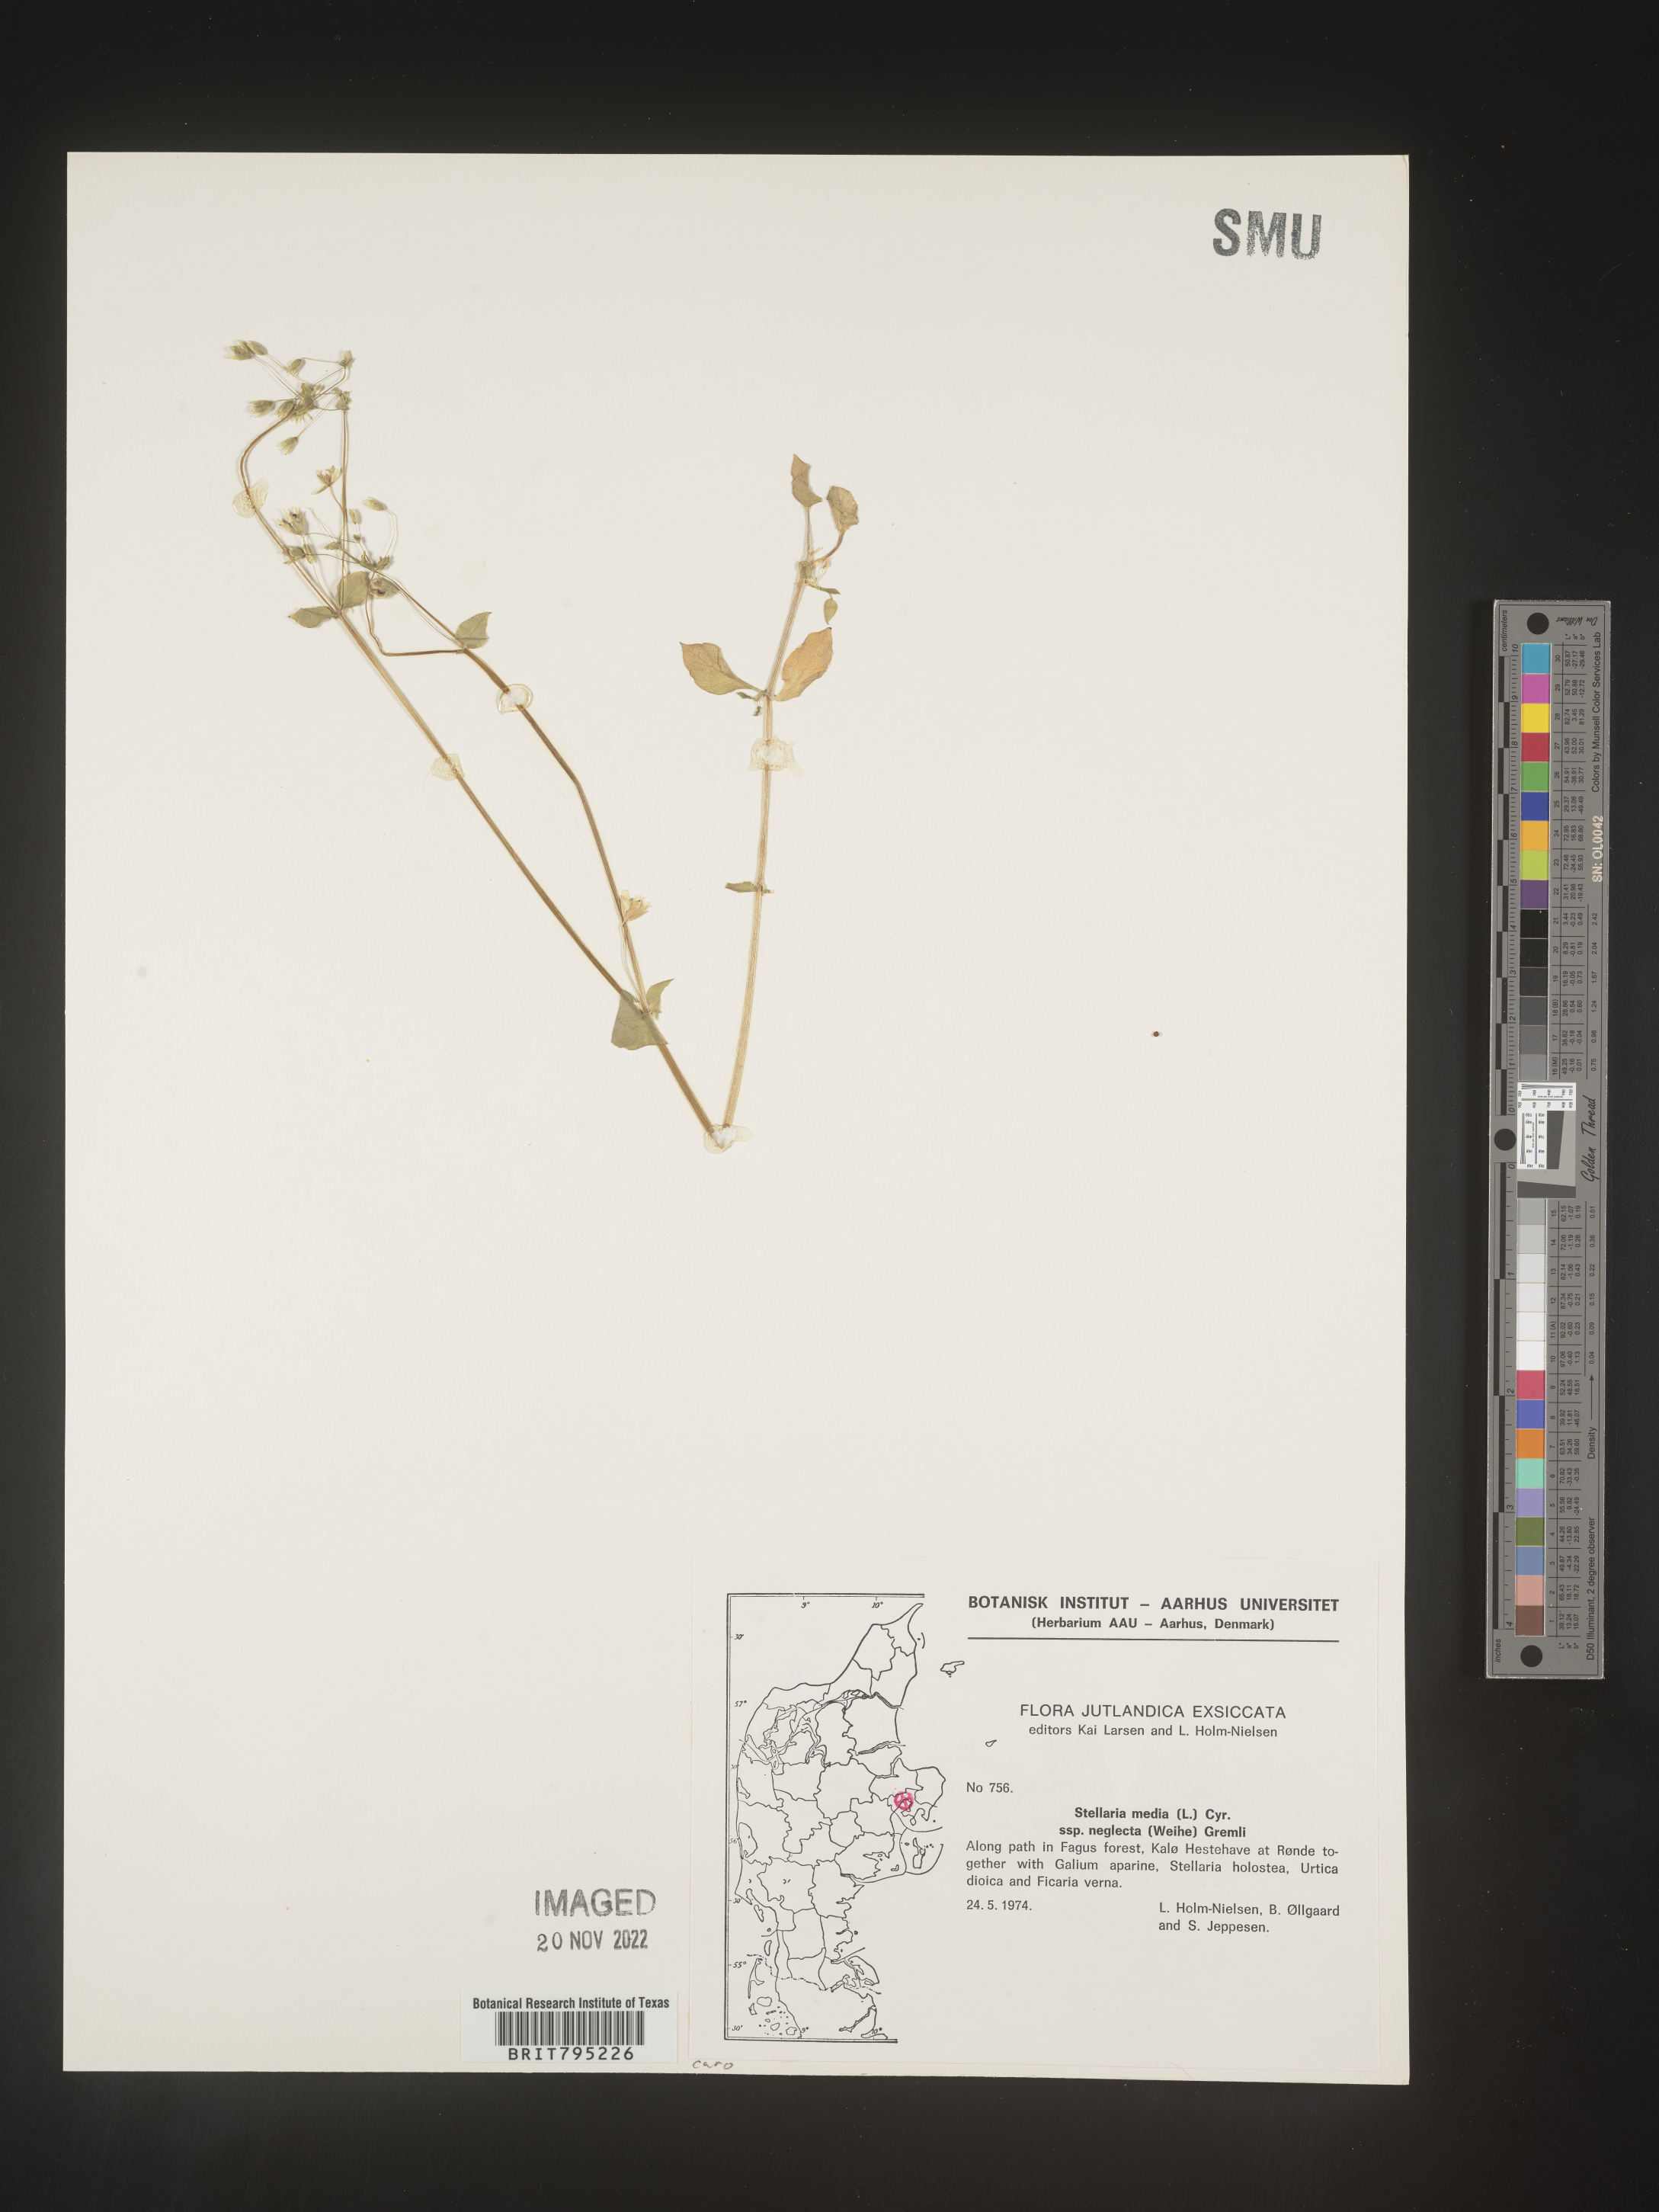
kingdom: Plantae
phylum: Tracheophyta
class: Magnoliopsida
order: Caryophyllales
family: Caryophyllaceae
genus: Stellaria
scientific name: Stellaria
